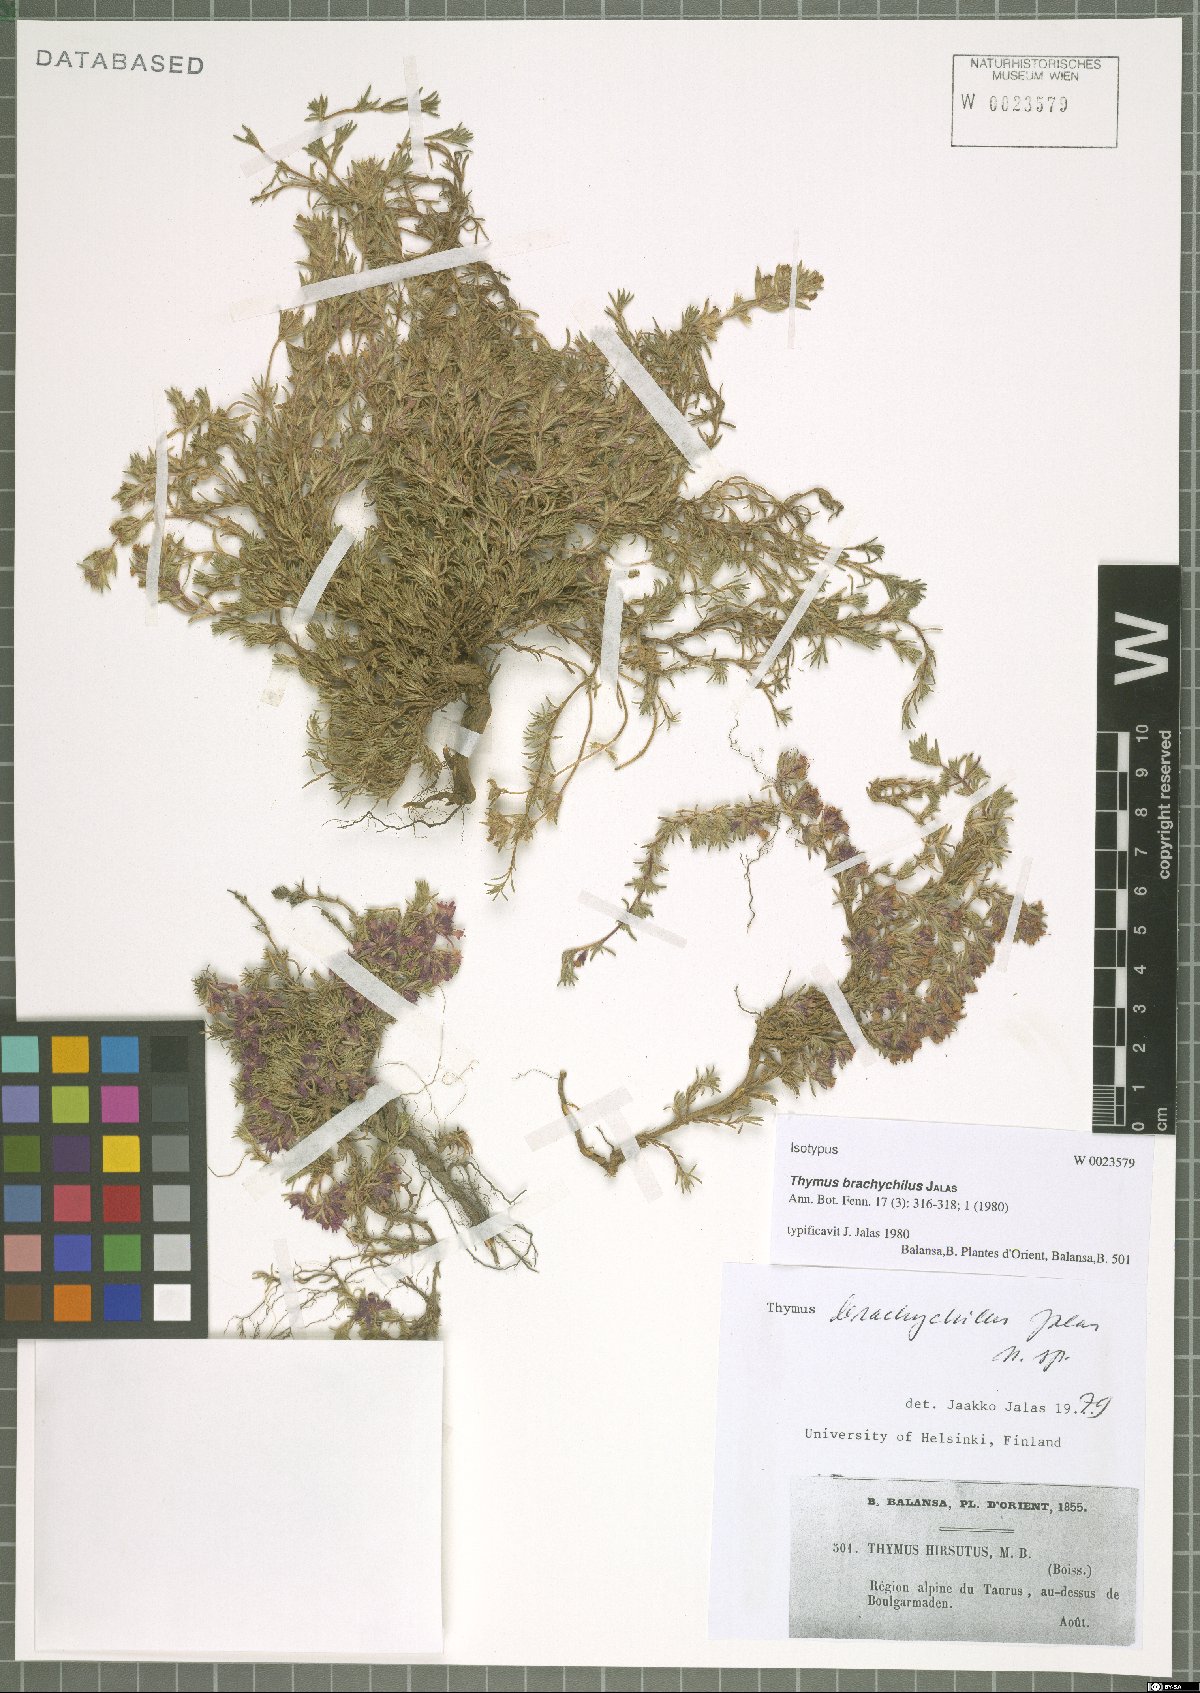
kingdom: Plantae
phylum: Tracheophyta
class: Magnoliopsida
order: Lamiales
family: Lamiaceae
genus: Thymus
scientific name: Thymus brachychilus
